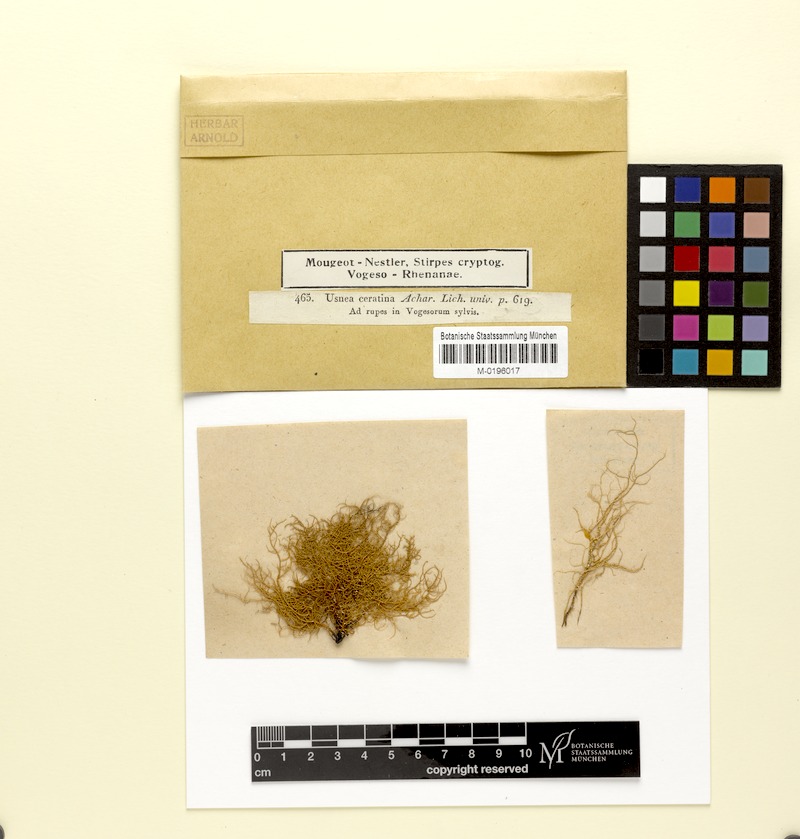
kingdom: Fungi
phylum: Ascomycota
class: Lecanoromycetes
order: Lecanorales
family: Parmeliaceae
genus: Usnea
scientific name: Usnea ceratina
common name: Warty beard lichen
